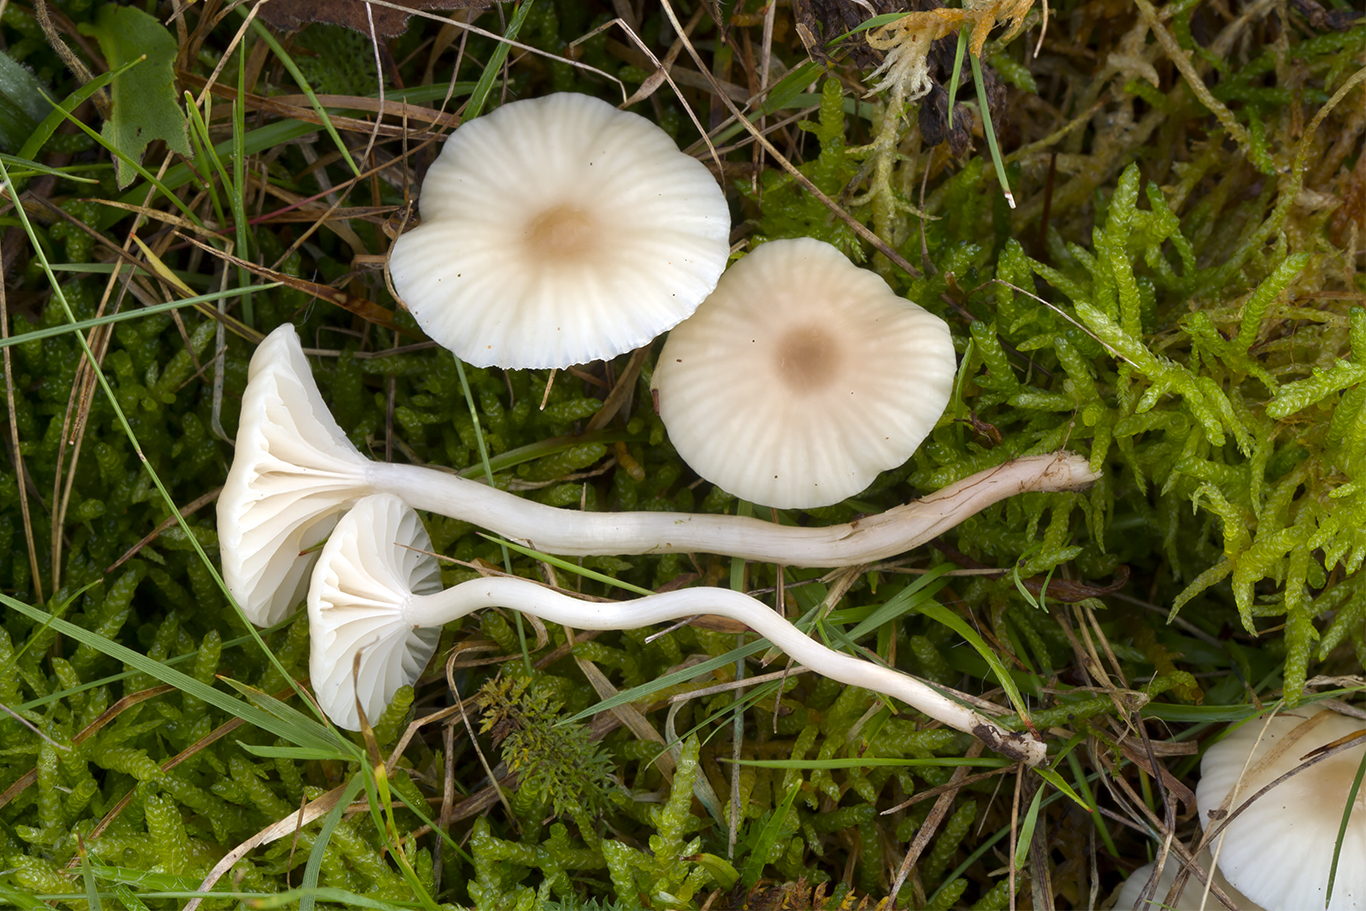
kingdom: Fungi
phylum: Basidiomycota
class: Agaricomycetes
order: Agaricales
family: Hygrophoraceae
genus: Cuphophyllus
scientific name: Cuphophyllus virgineus
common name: brunøjet vokshat
